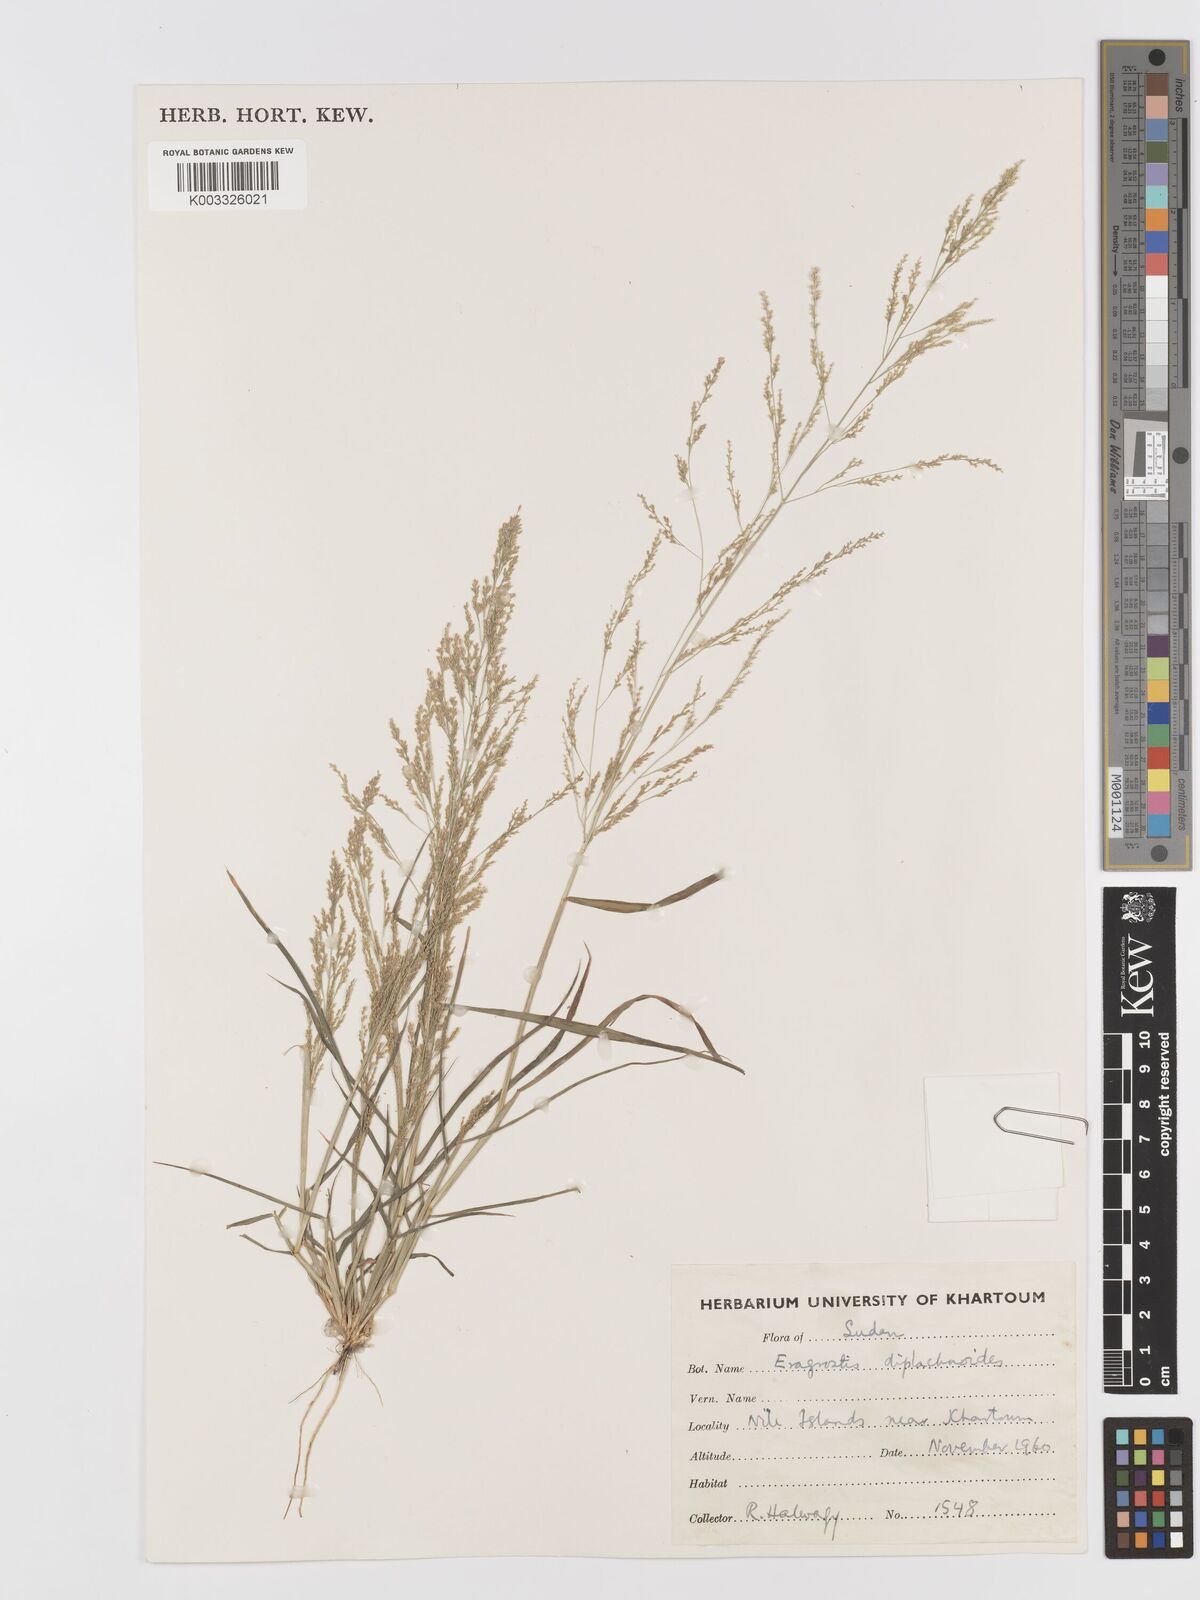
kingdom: Plantae
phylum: Tracheophyta
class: Liliopsida
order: Poales
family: Poaceae
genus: Eragrostis
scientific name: Eragrostis japonica
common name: Pond lovegrass
